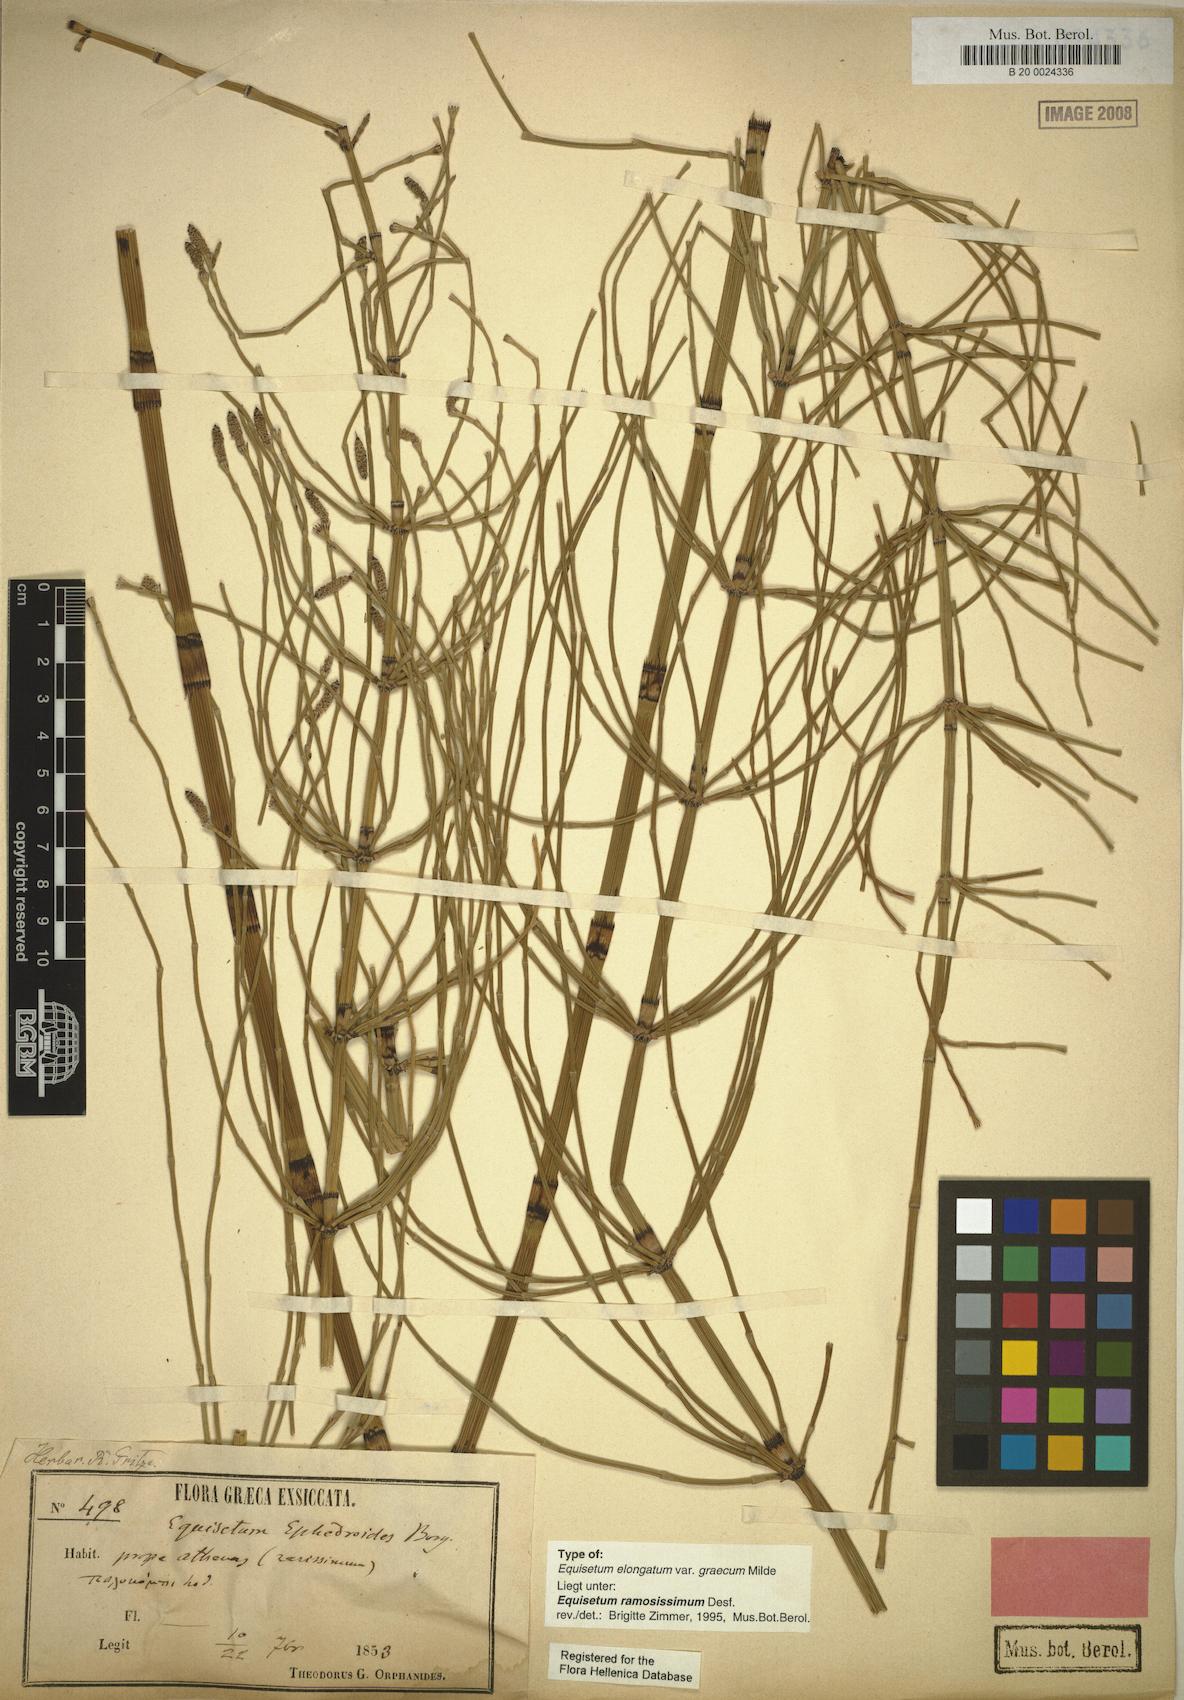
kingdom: Plantae
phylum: Tracheophyta
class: Polypodiopsida
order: Equisetales
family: Equisetaceae
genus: Equisetum
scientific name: Equisetum ramosissimum
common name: Branched horsetail
